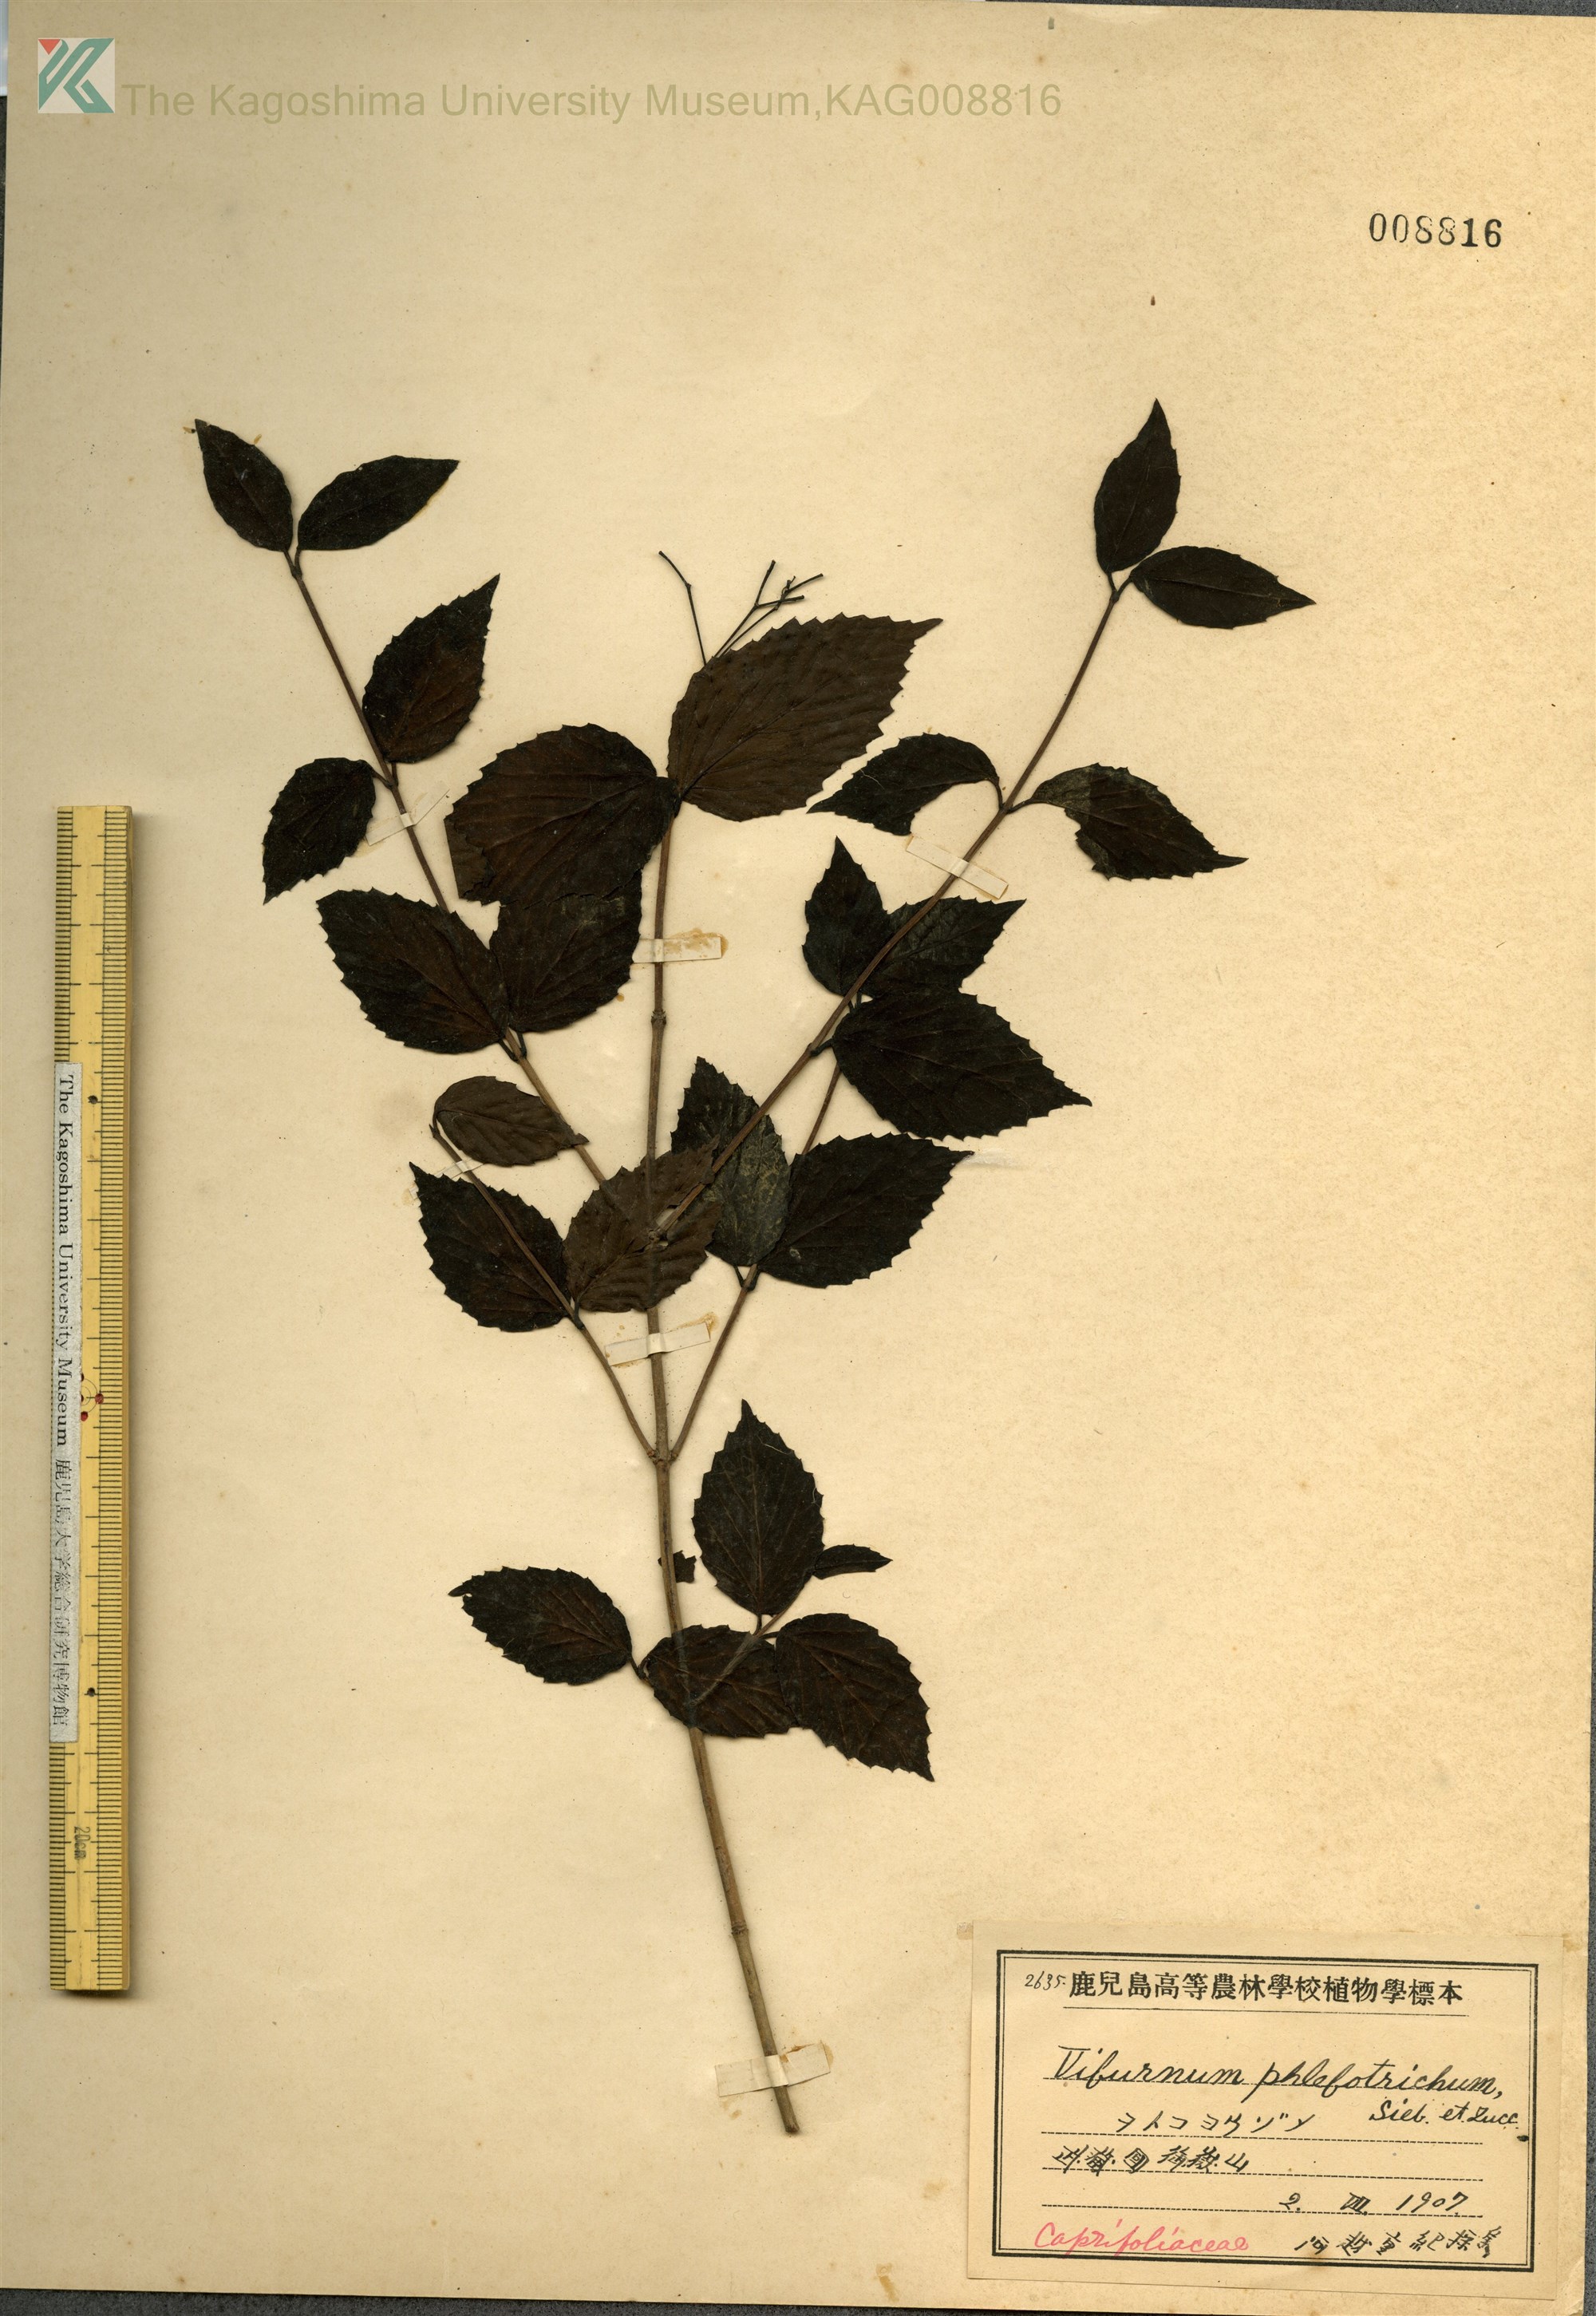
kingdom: Plantae
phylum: Tracheophyta
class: Magnoliopsida
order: Dipsacales
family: Viburnaceae
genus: Viburnum
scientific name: Viburnum phlebotrichum
